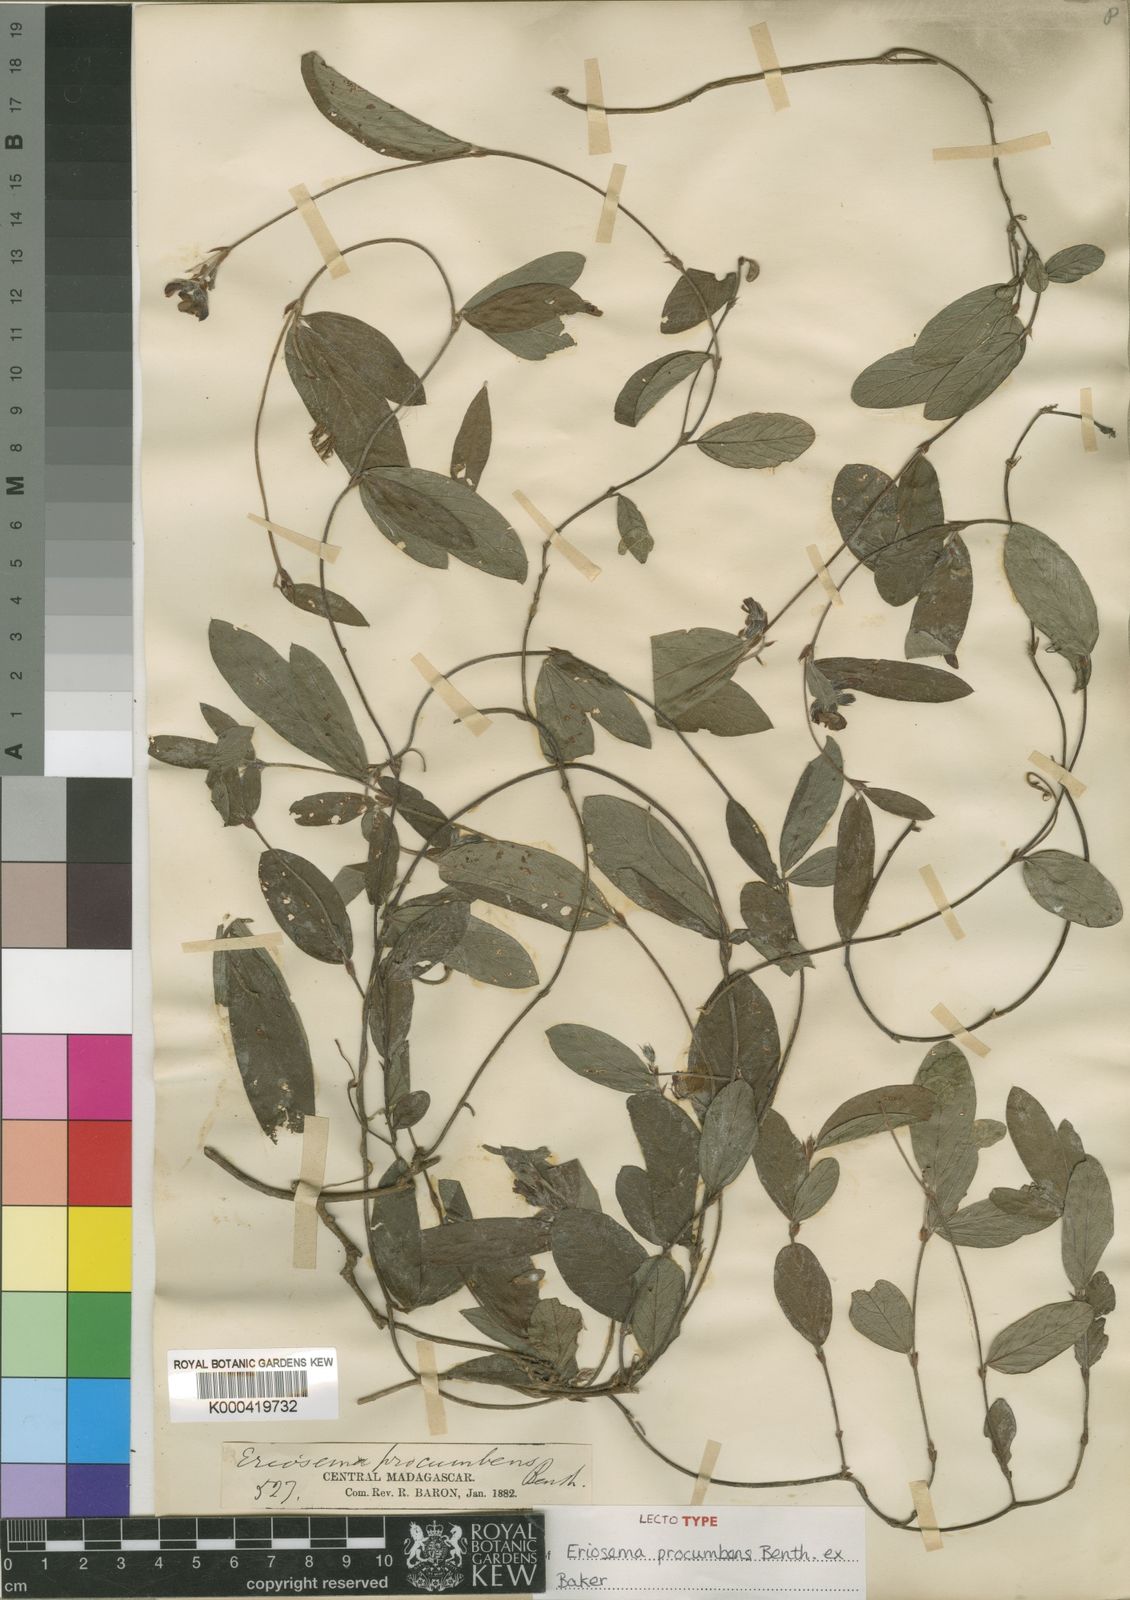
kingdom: Plantae
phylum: Tracheophyta
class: Magnoliopsida
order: Fabales
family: Fabaceae
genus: Eriosema
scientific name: Eriosema procumbens
